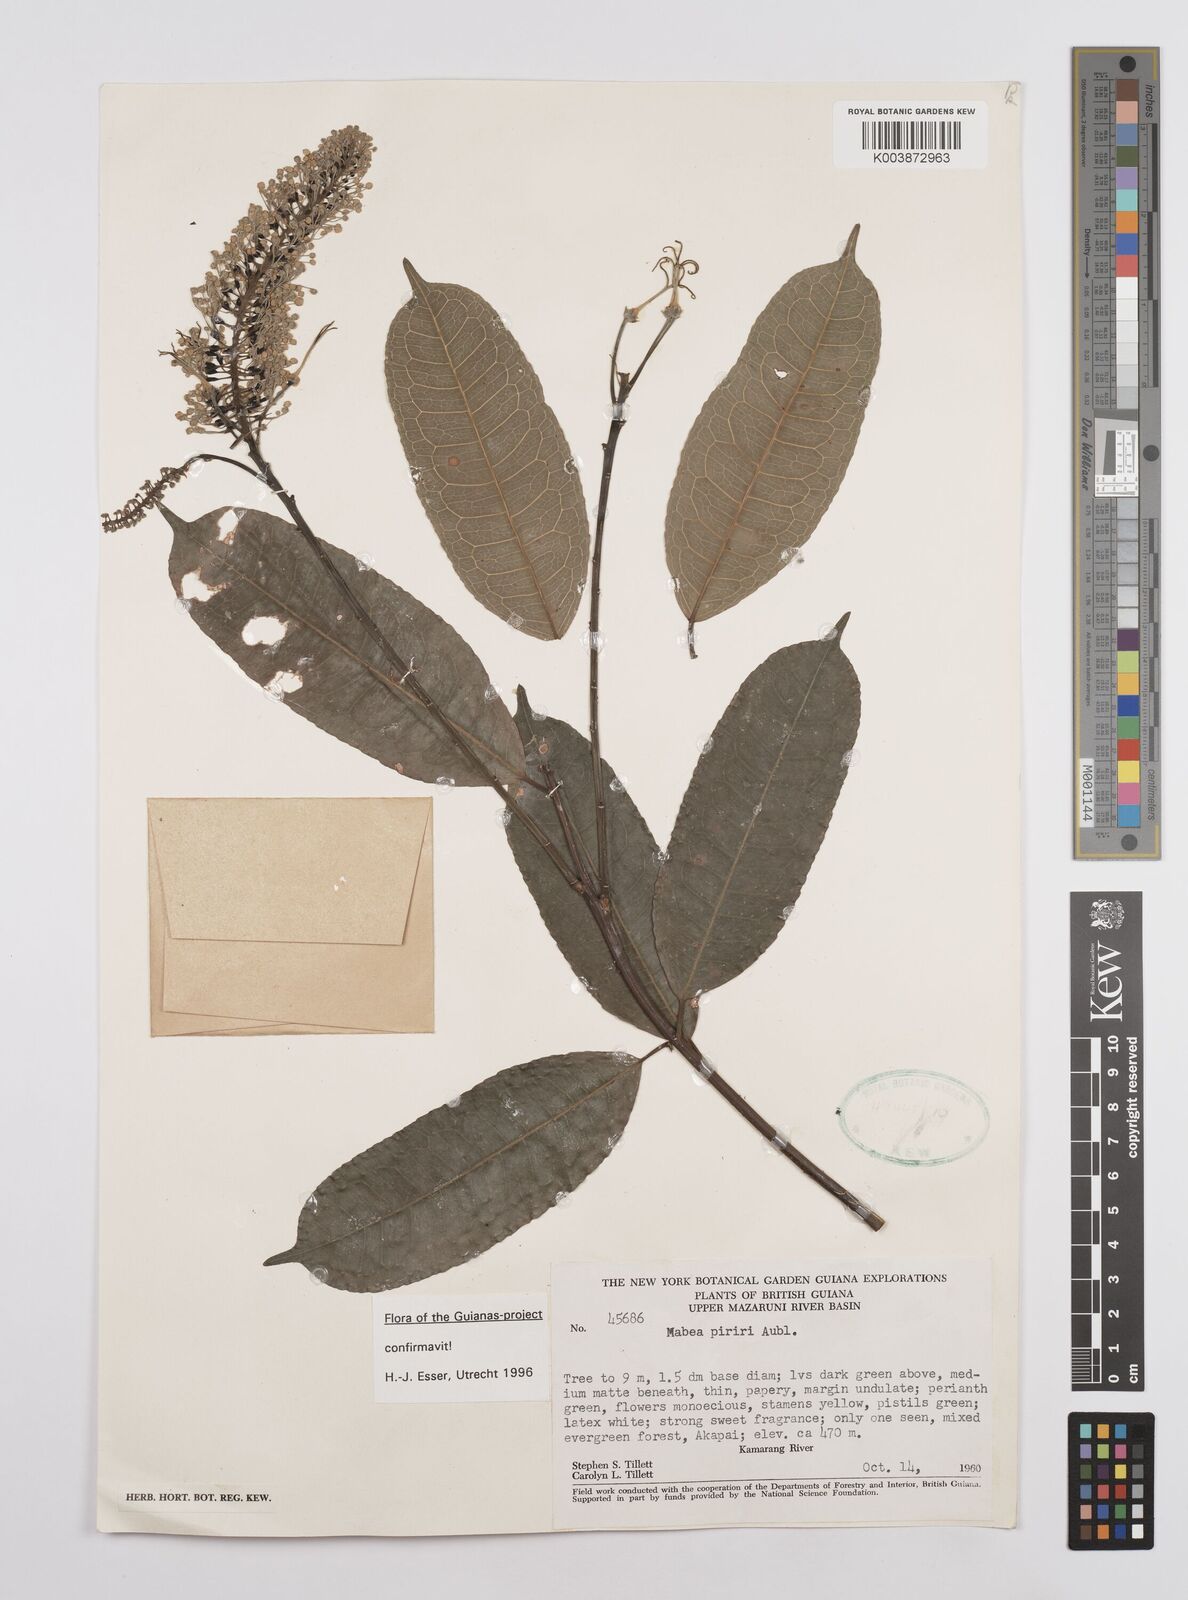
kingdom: Plantae
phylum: Tracheophyta
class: Magnoliopsida
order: Malpighiales
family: Euphorbiaceae
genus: Mabea
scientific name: Mabea piriri
